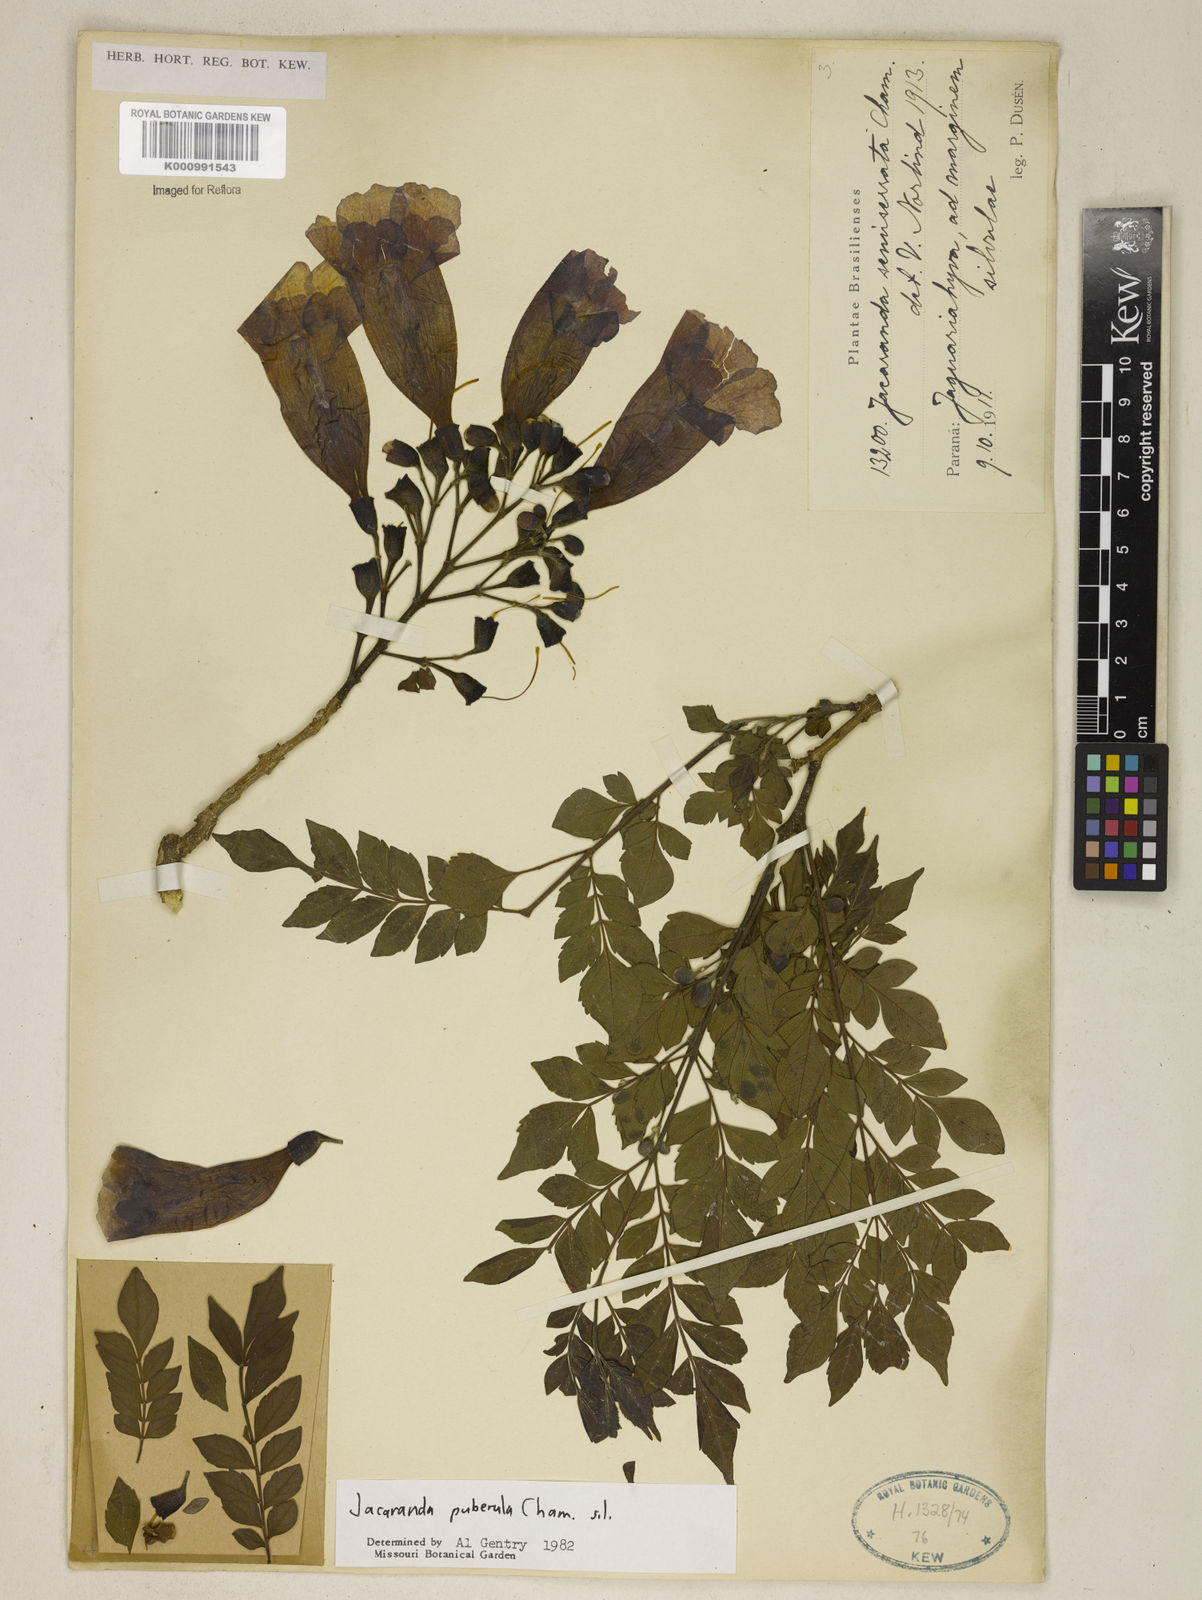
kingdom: Plantae
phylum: Tracheophyta
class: Magnoliopsida
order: Lamiales
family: Bignoniaceae
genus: Jacaranda
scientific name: Jacaranda puberula
